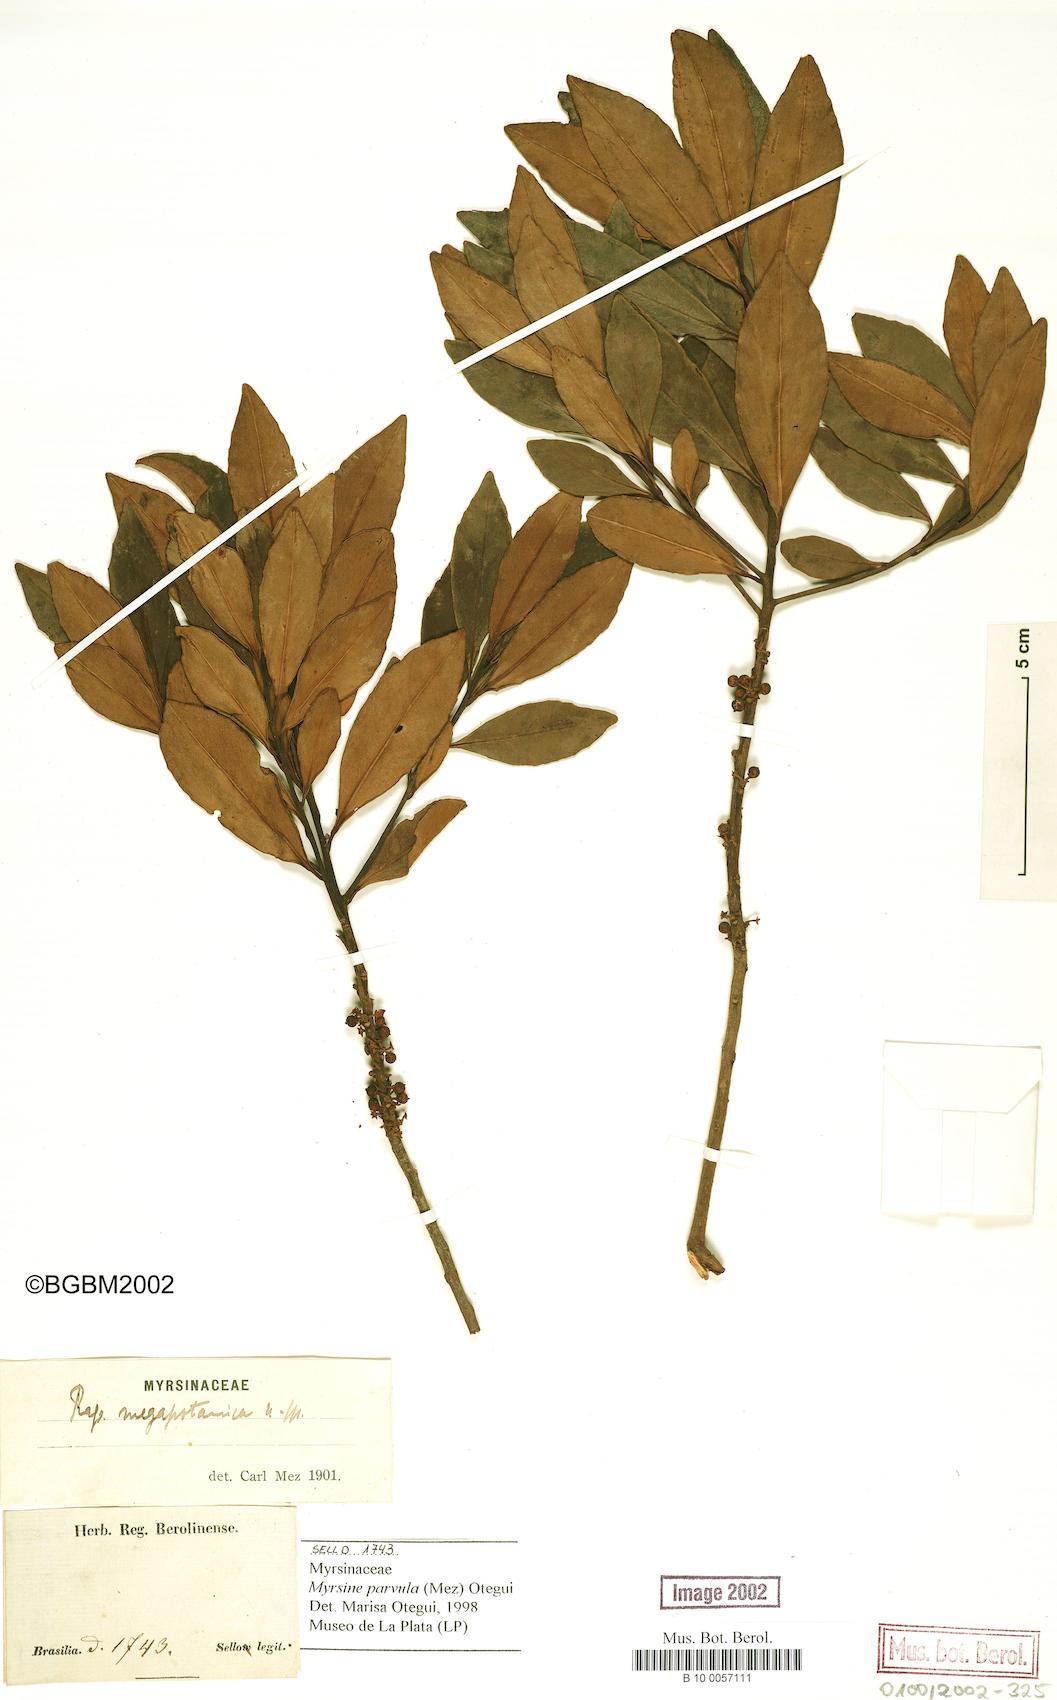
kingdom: Plantae
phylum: Tracheophyta
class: Magnoliopsida
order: Ericales
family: Primulaceae
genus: Myrsine
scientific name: Myrsine lorentziana
